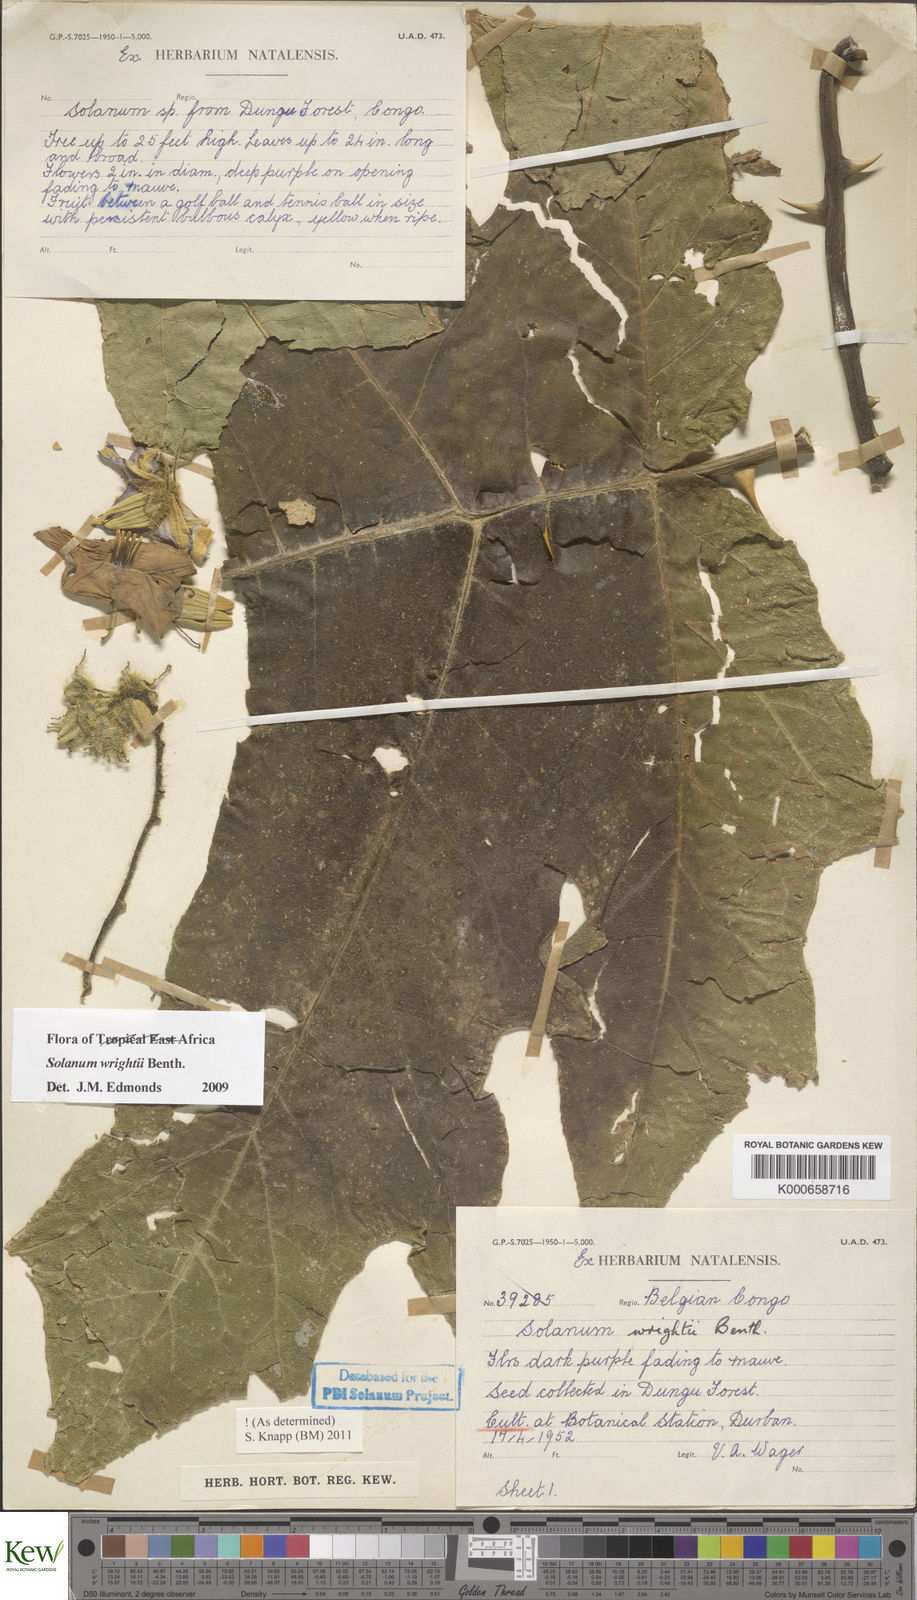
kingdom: Plantae
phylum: Tracheophyta
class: Magnoliopsida
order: Solanales
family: Solanaceae
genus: Solanum
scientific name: Solanum wrightii
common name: Brazilian potato-tree
